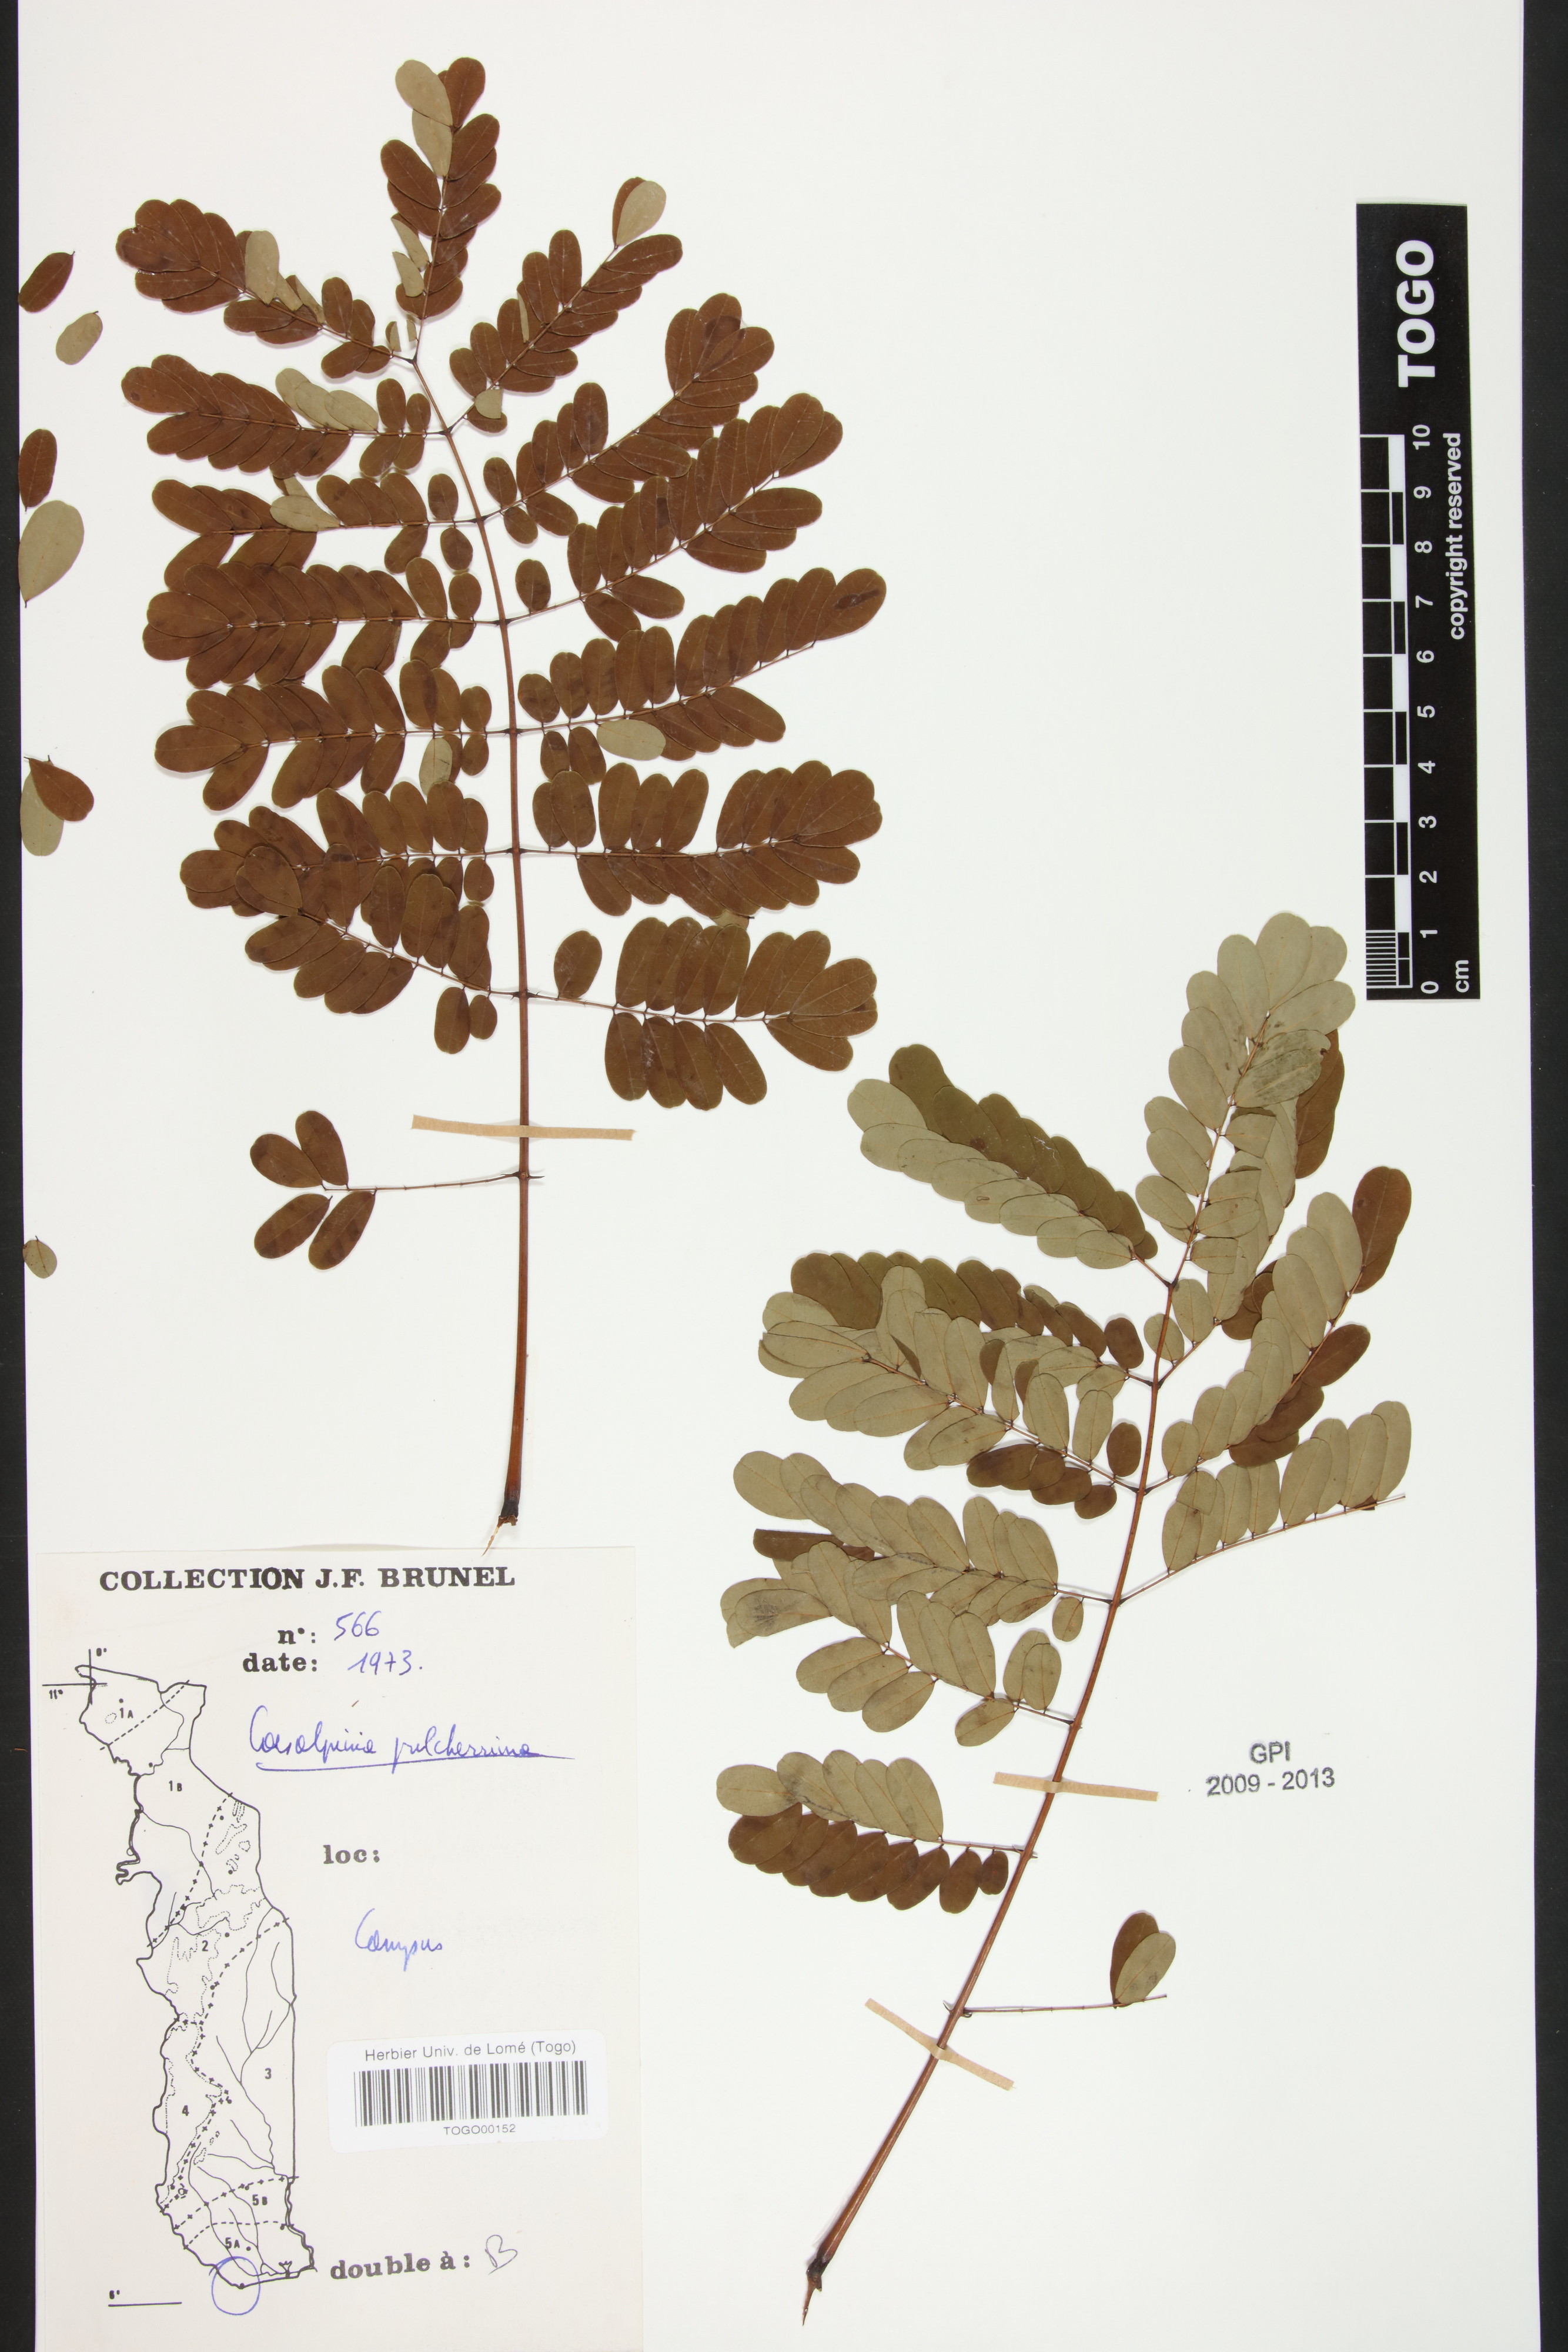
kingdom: Plantae
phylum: Tracheophyta
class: Magnoliopsida
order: Fabales
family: Fabaceae
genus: Caesalpinia
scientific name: Caesalpinia pulcherrima
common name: Pride-of-barbados
